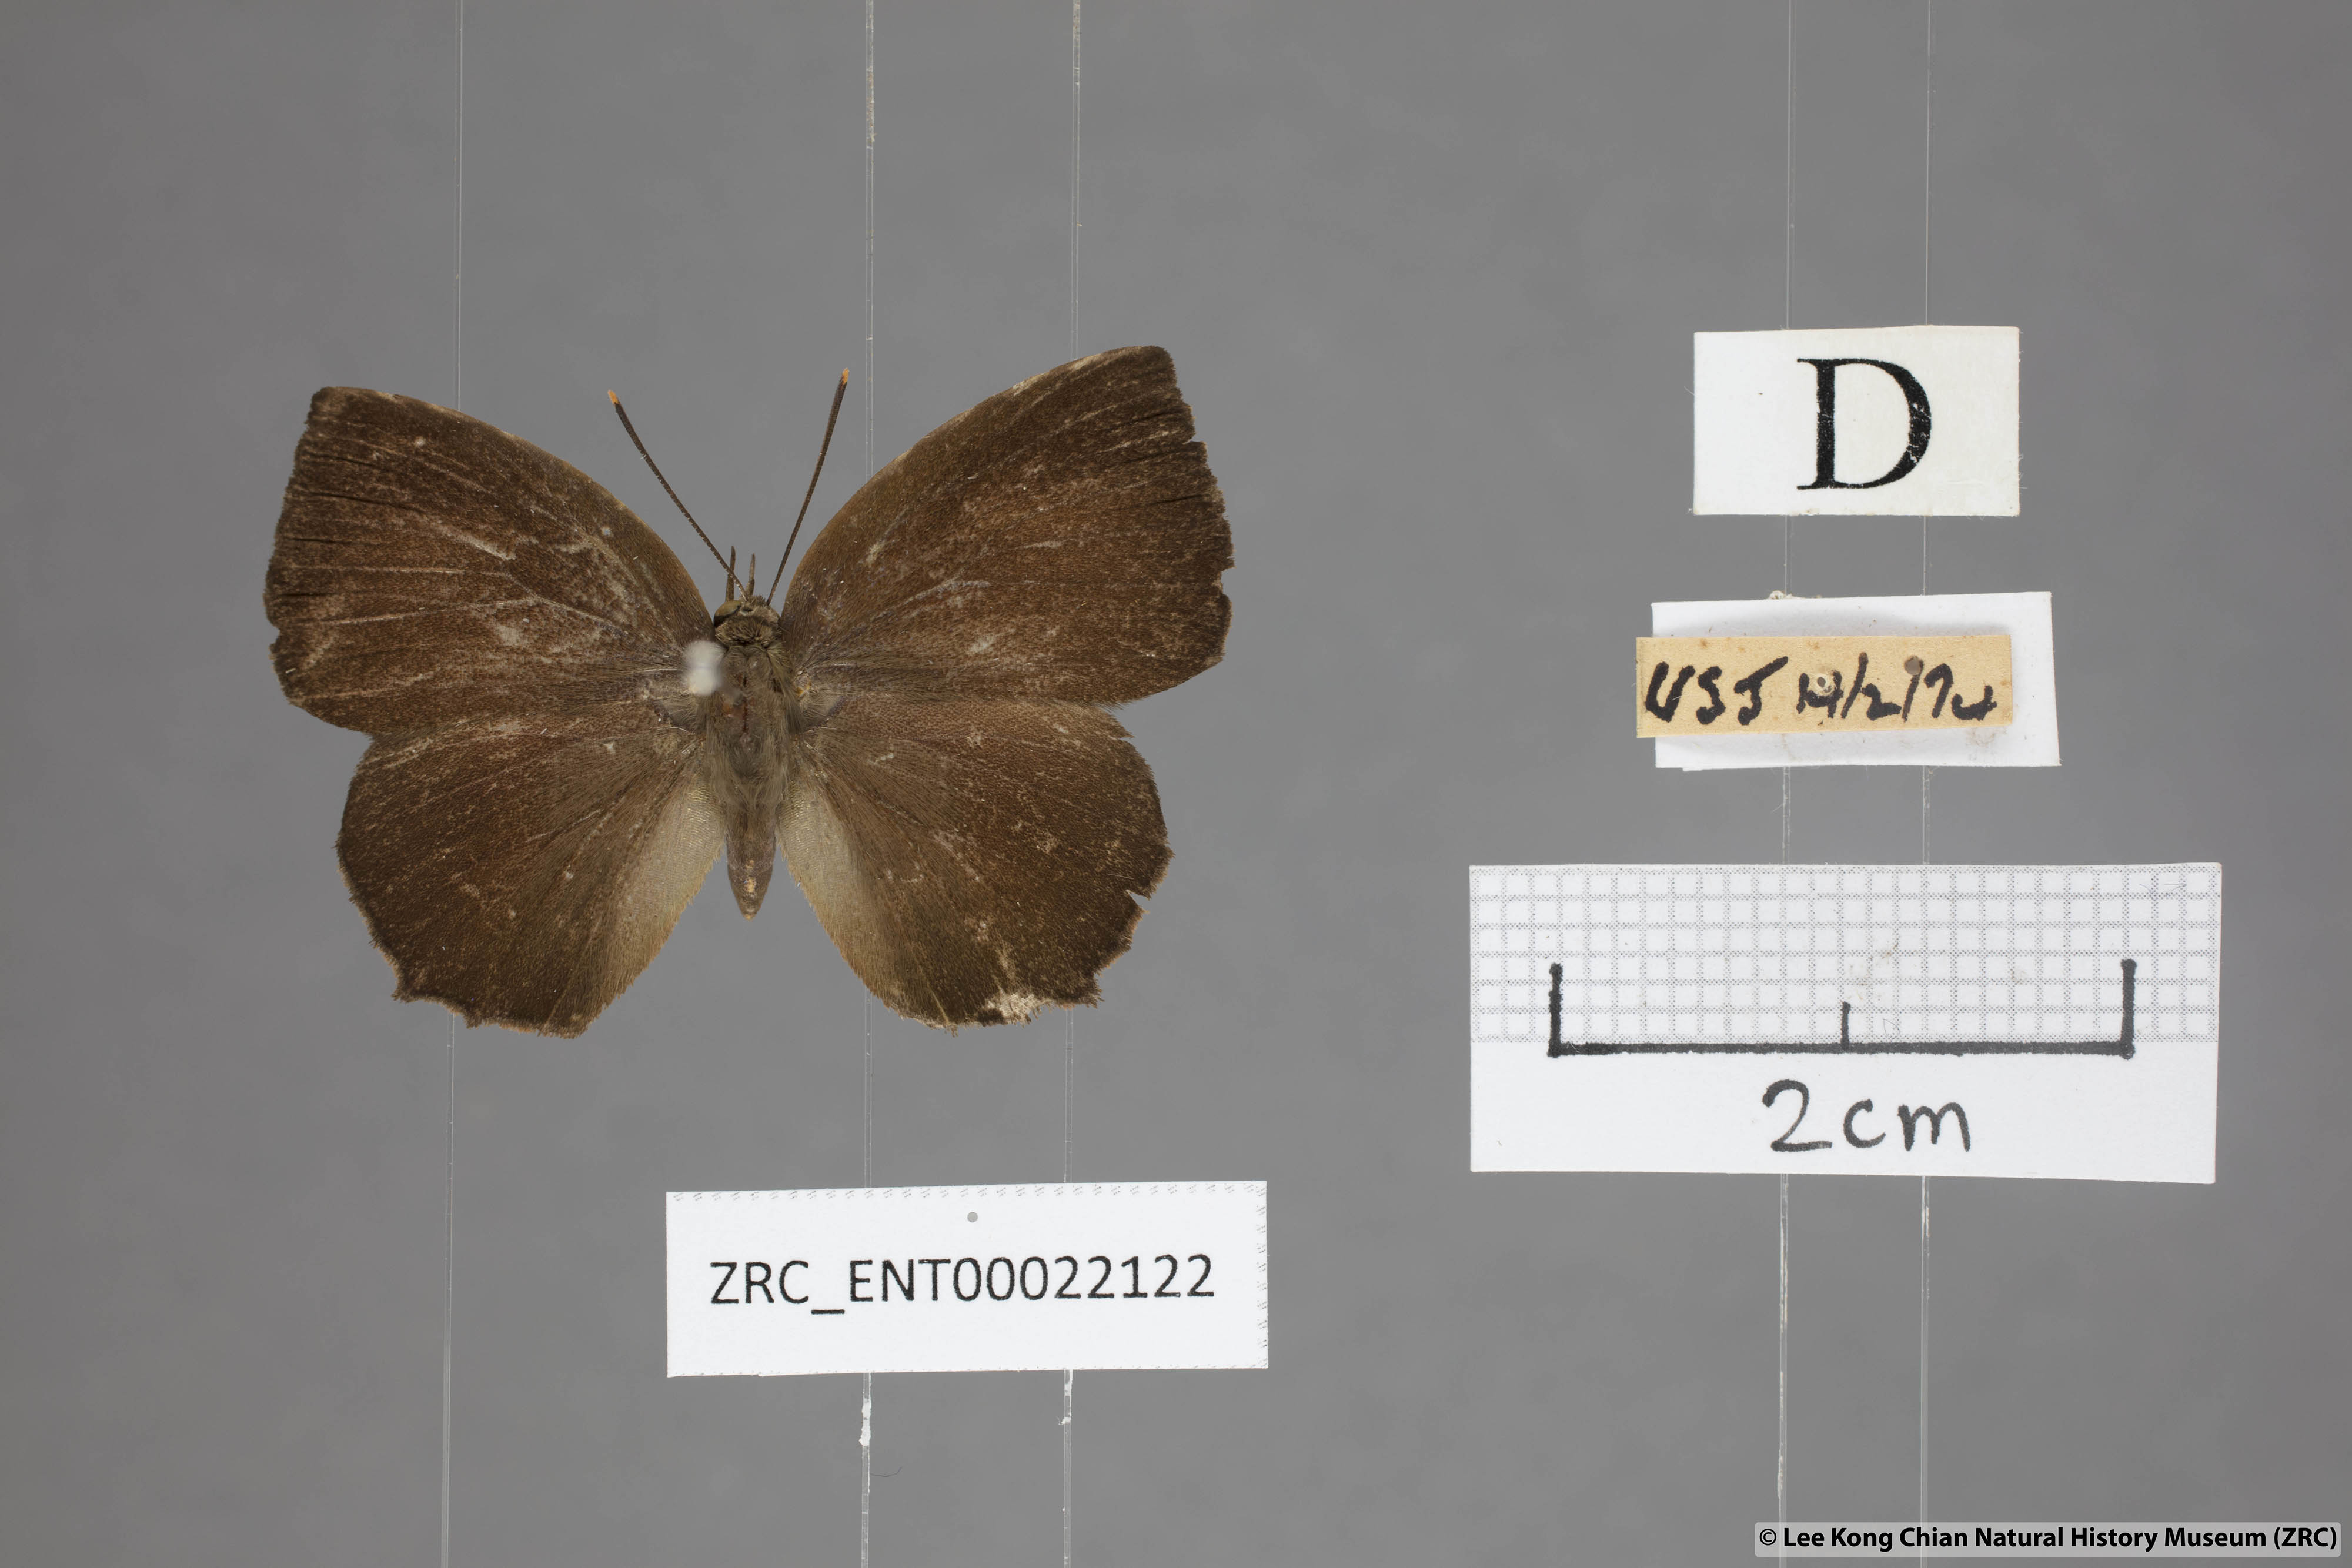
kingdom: Animalia
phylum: Arthropoda
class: Insecta
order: Lepidoptera
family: Lycaenidae
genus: Surendra
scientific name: Surendra florimel
